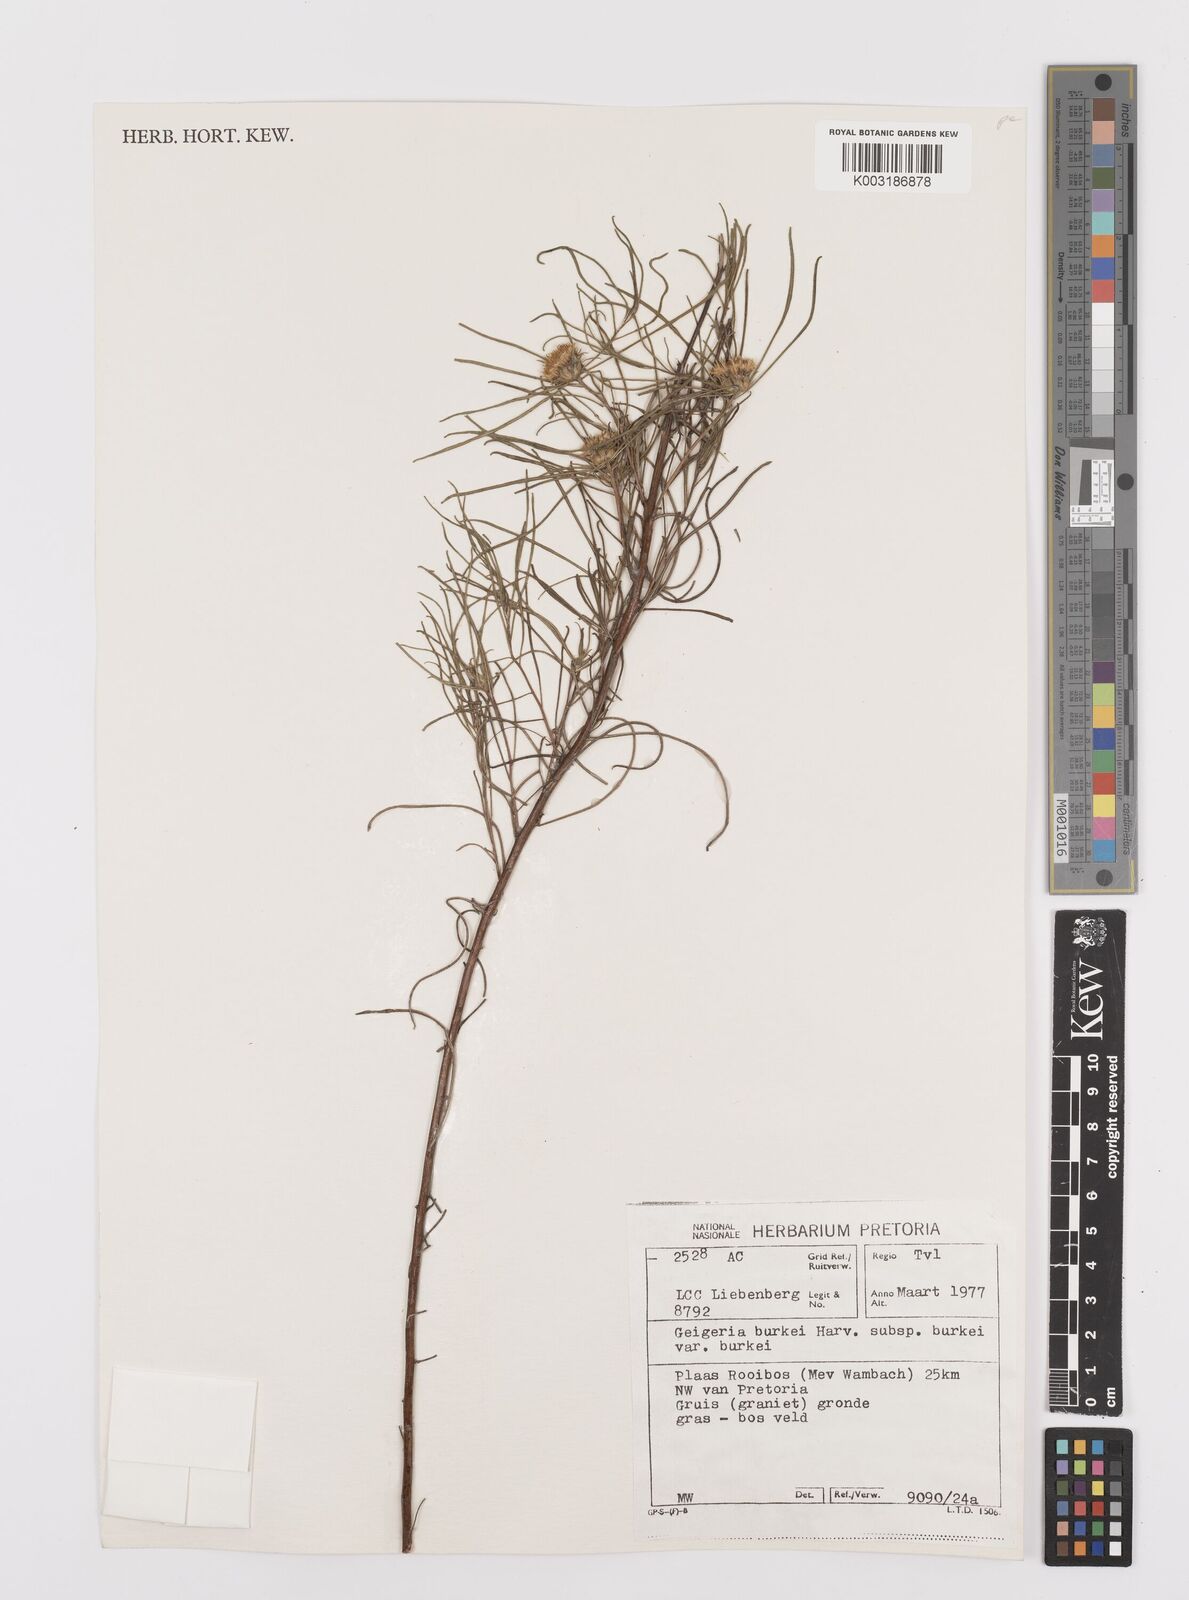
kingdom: Plantae
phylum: Tracheophyta
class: Magnoliopsida
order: Asterales
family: Asteraceae
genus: Geigeria
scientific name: Geigeria burkei
